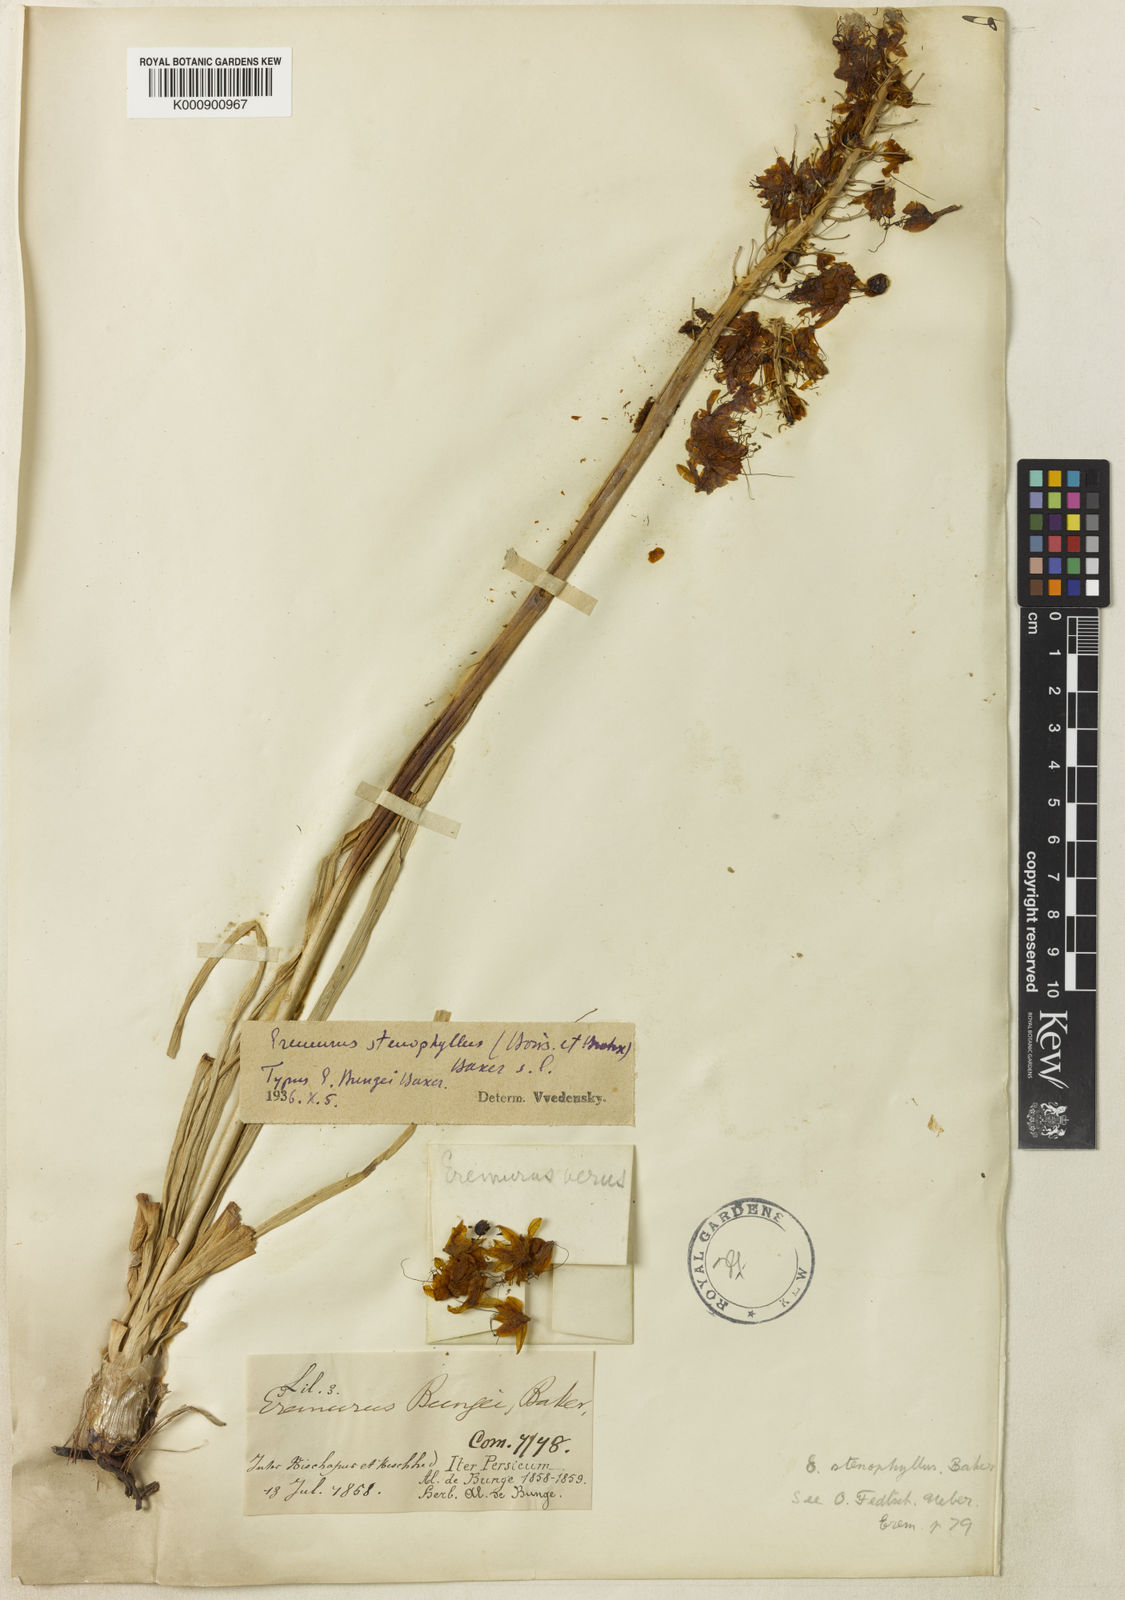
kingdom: Plantae
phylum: Tracheophyta
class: Liliopsida
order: Asparagales
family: Asphodelaceae
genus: Eremurus
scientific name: Eremurus stenophyllus
